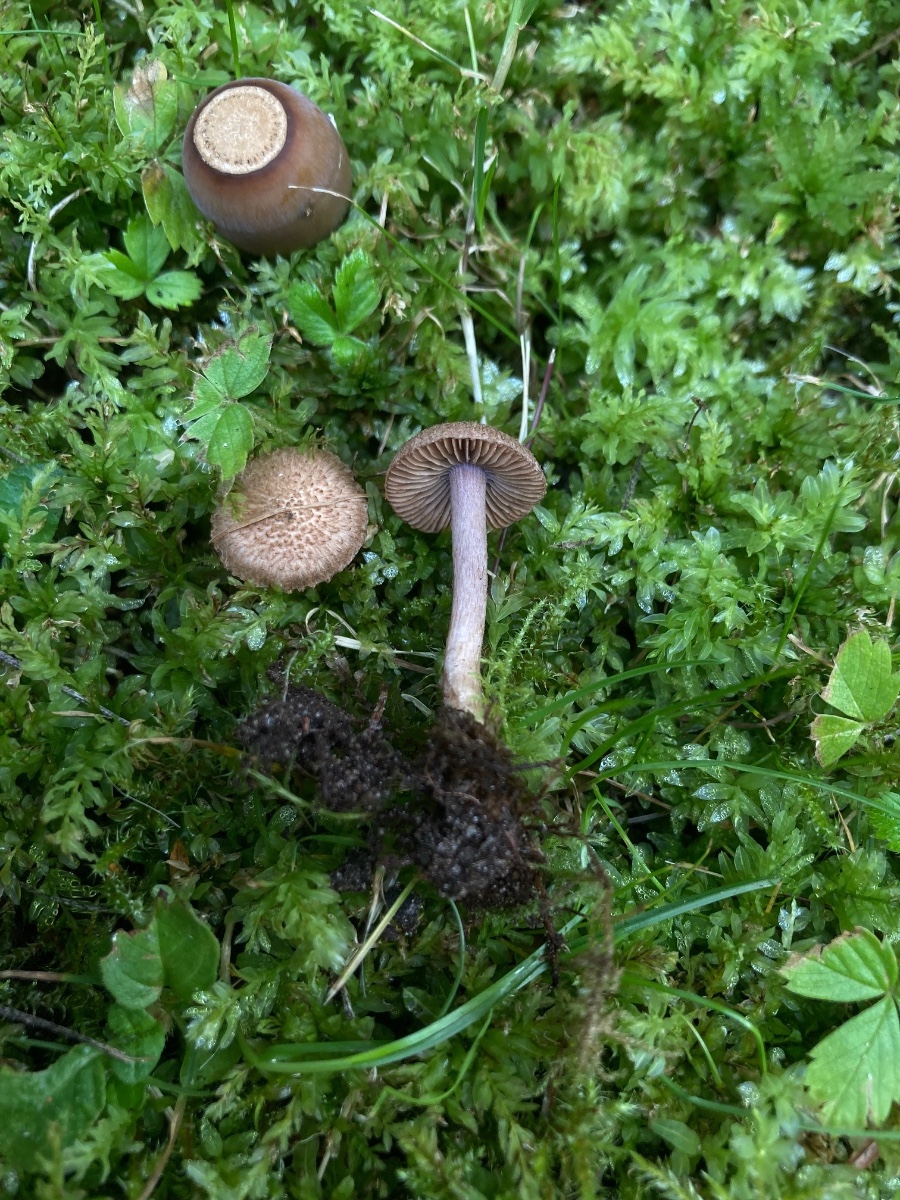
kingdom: Fungi
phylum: Basidiomycota
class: Agaricomycetes
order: Agaricales
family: Inocybaceae
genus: Inocybe
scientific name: Inocybe cincinnata
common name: lillabladet trævlhat
